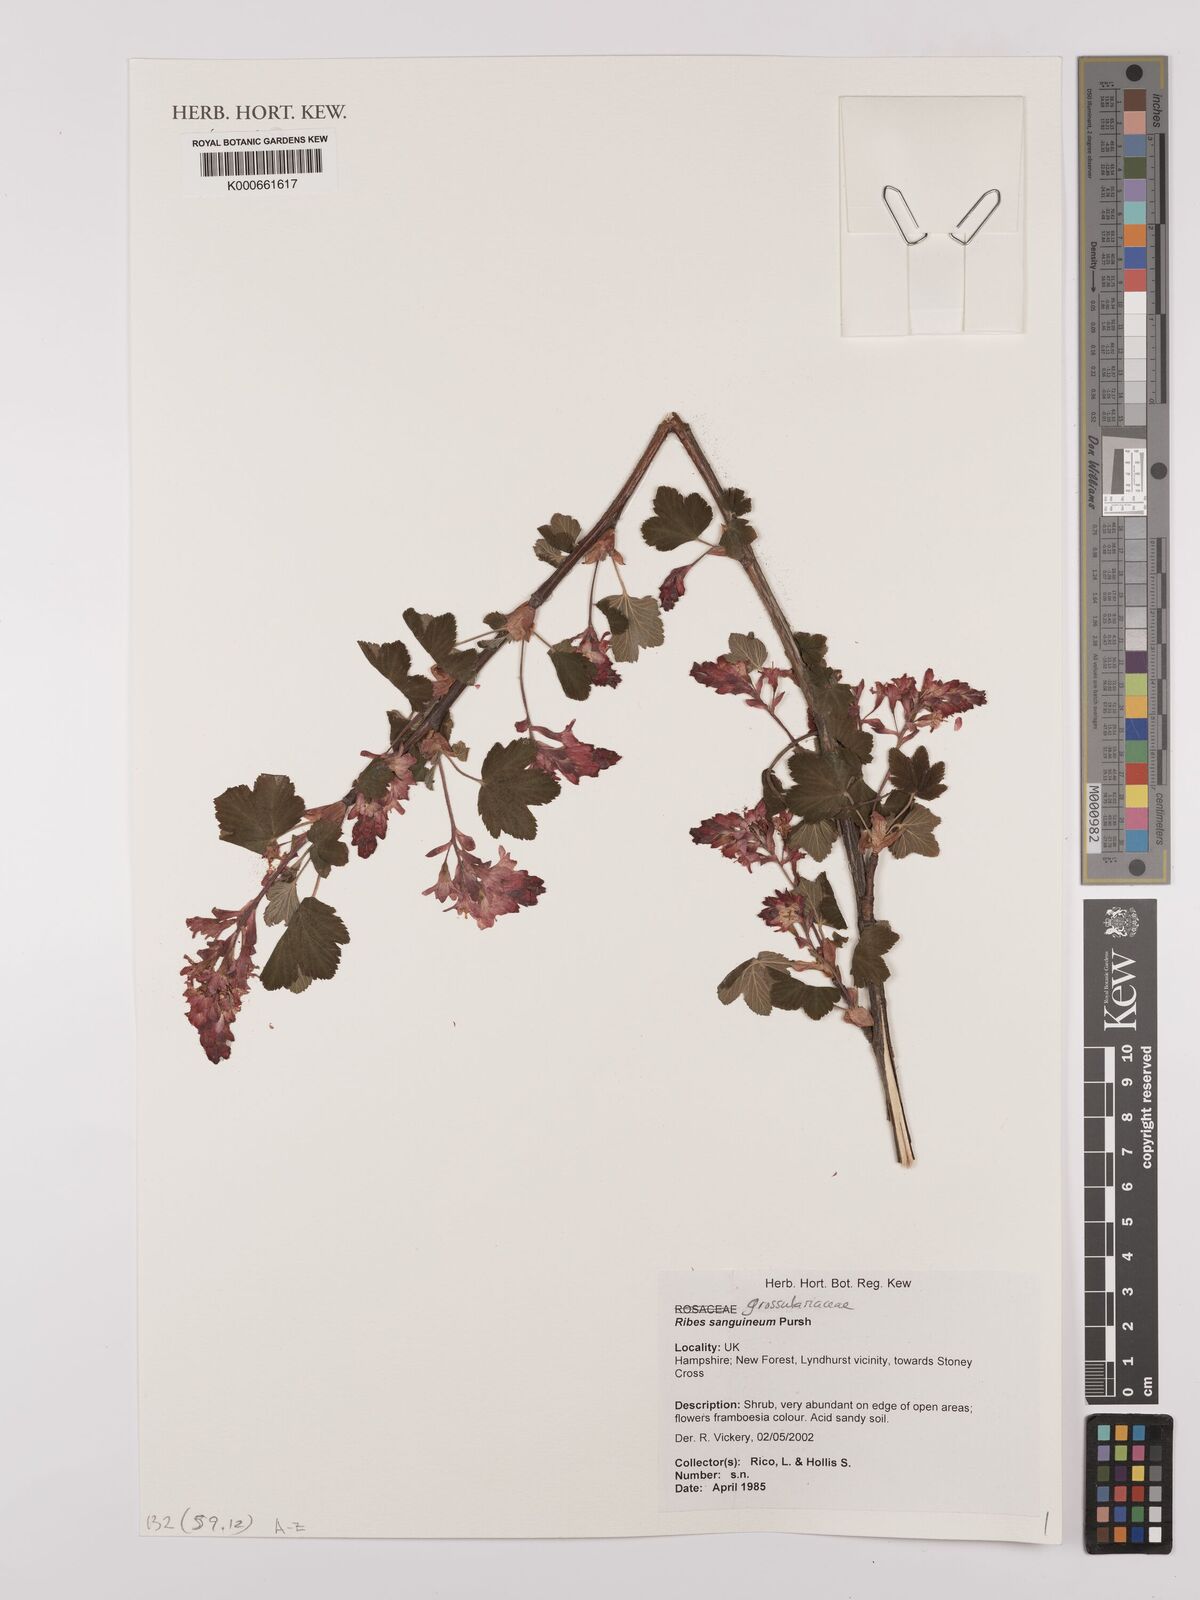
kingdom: Plantae
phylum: Tracheophyta
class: Magnoliopsida
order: Saxifragales
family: Grossulariaceae
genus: Ribes
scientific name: Ribes sanguineum
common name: Flowering currant
